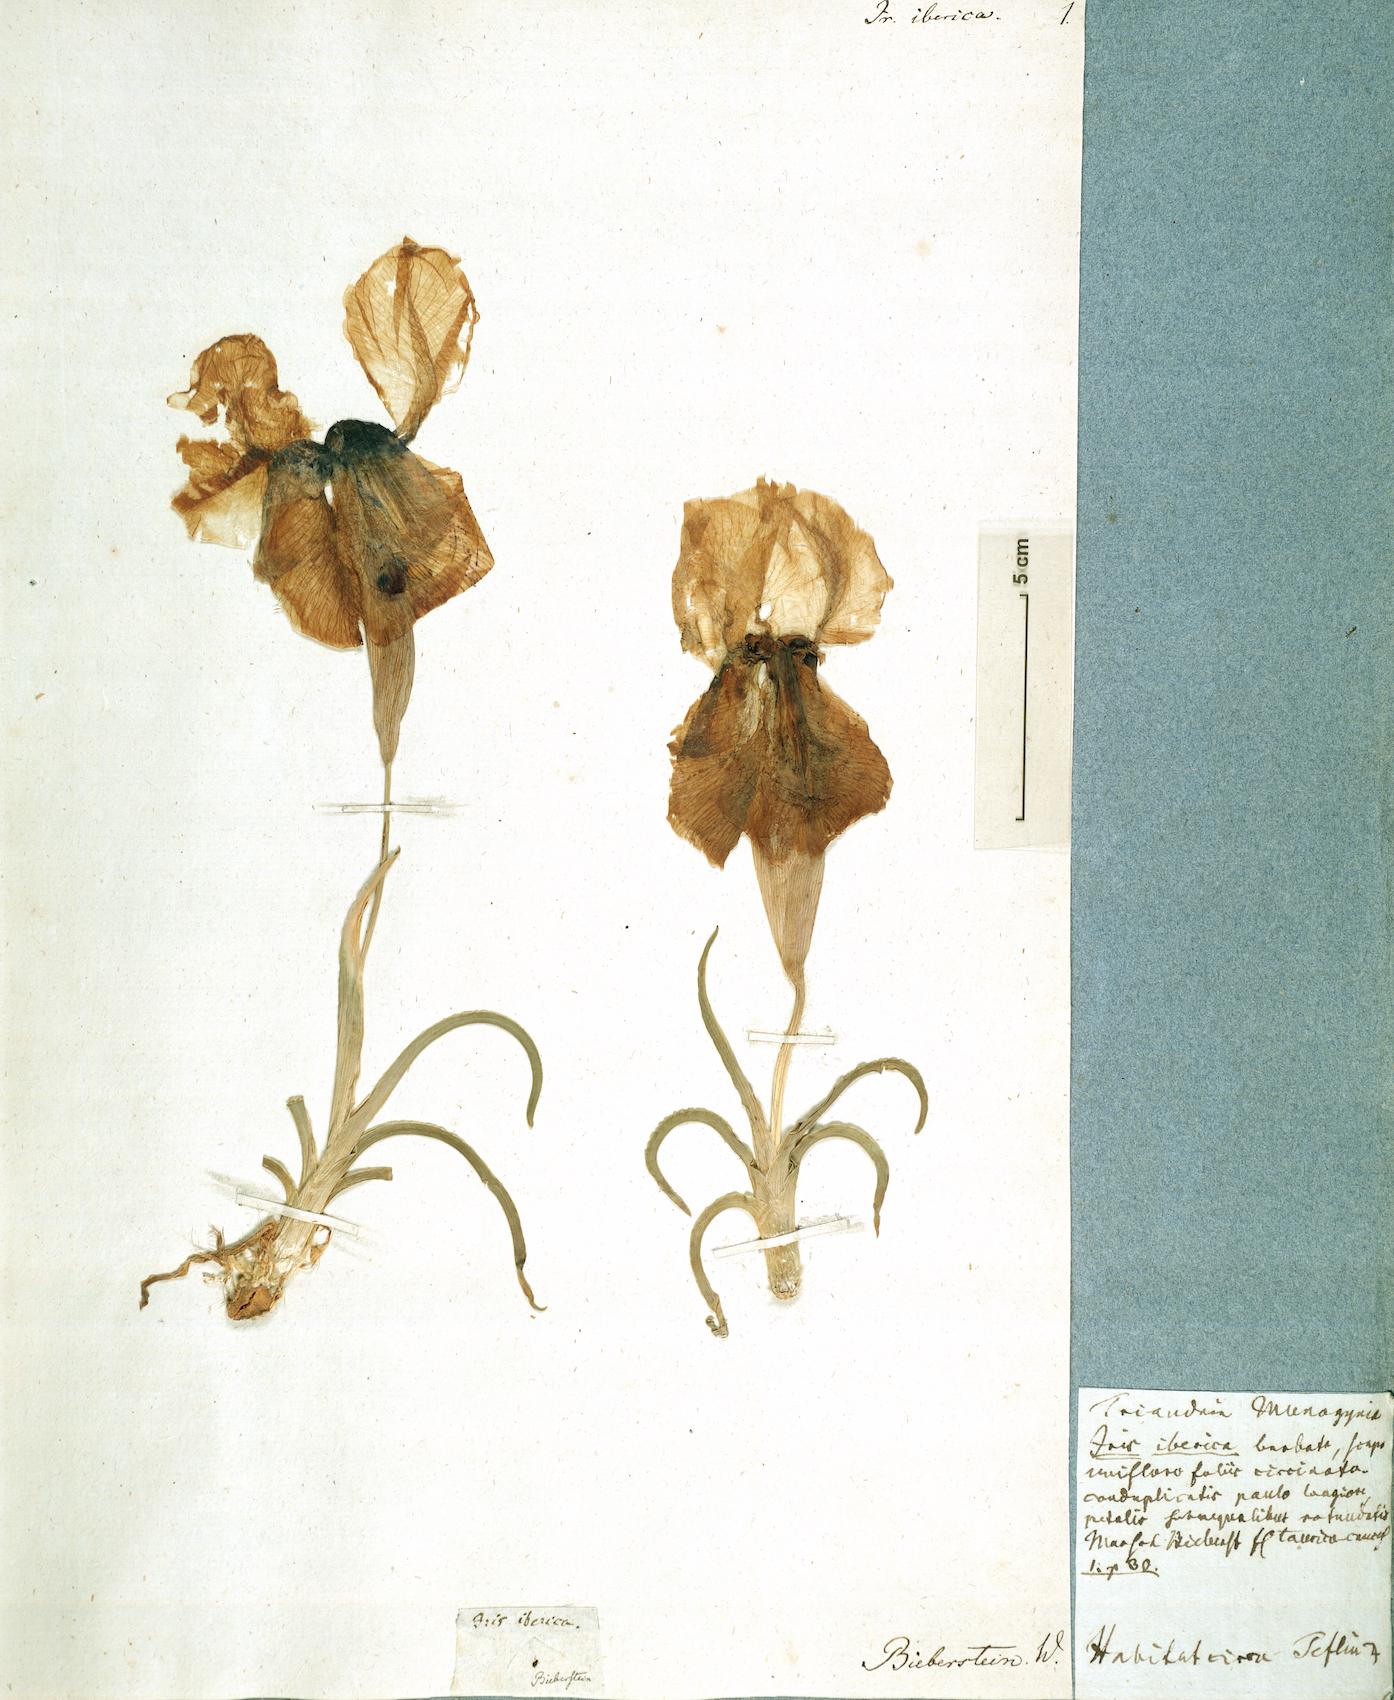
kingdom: Plantae
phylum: Tracheophyta
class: Liliopsida
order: Asparagales
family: Iridaceae
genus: Iris
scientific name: Iris iberica
